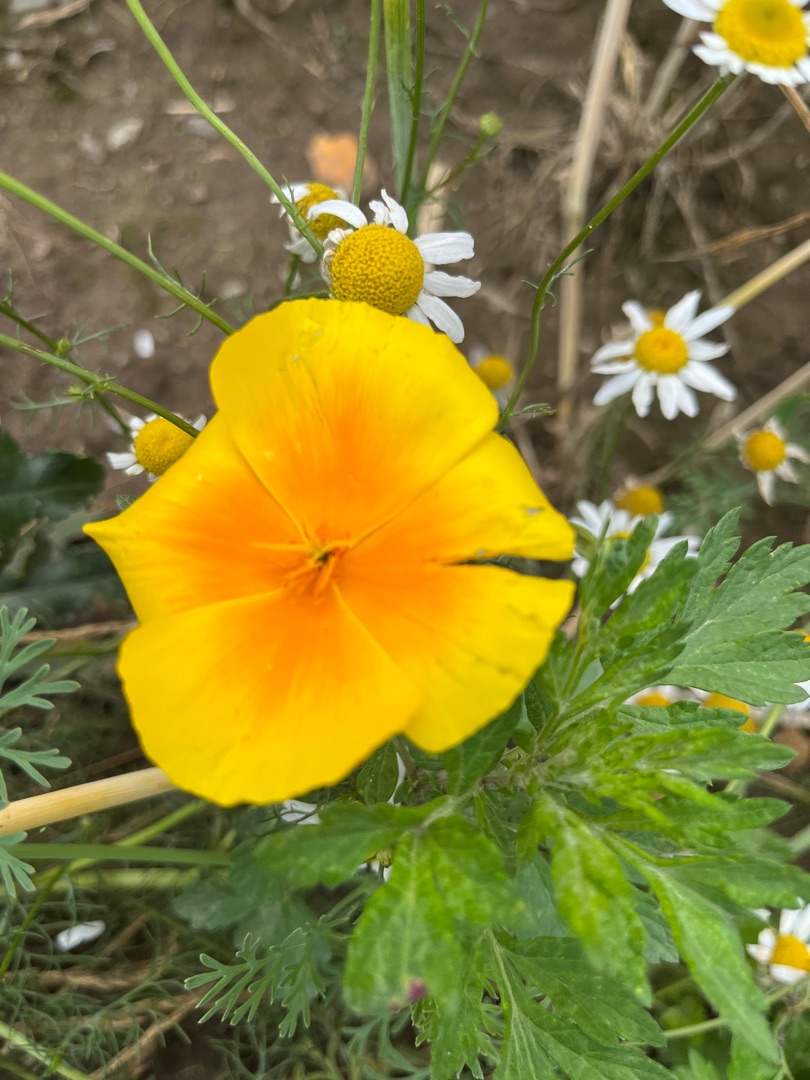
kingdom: Plantae
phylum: Tracheophyta
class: Magnoliopsida
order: Ranunculales
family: Papaveraceae
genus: Eschscholzia
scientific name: Eschscholzia californica
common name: Guldvalmue
